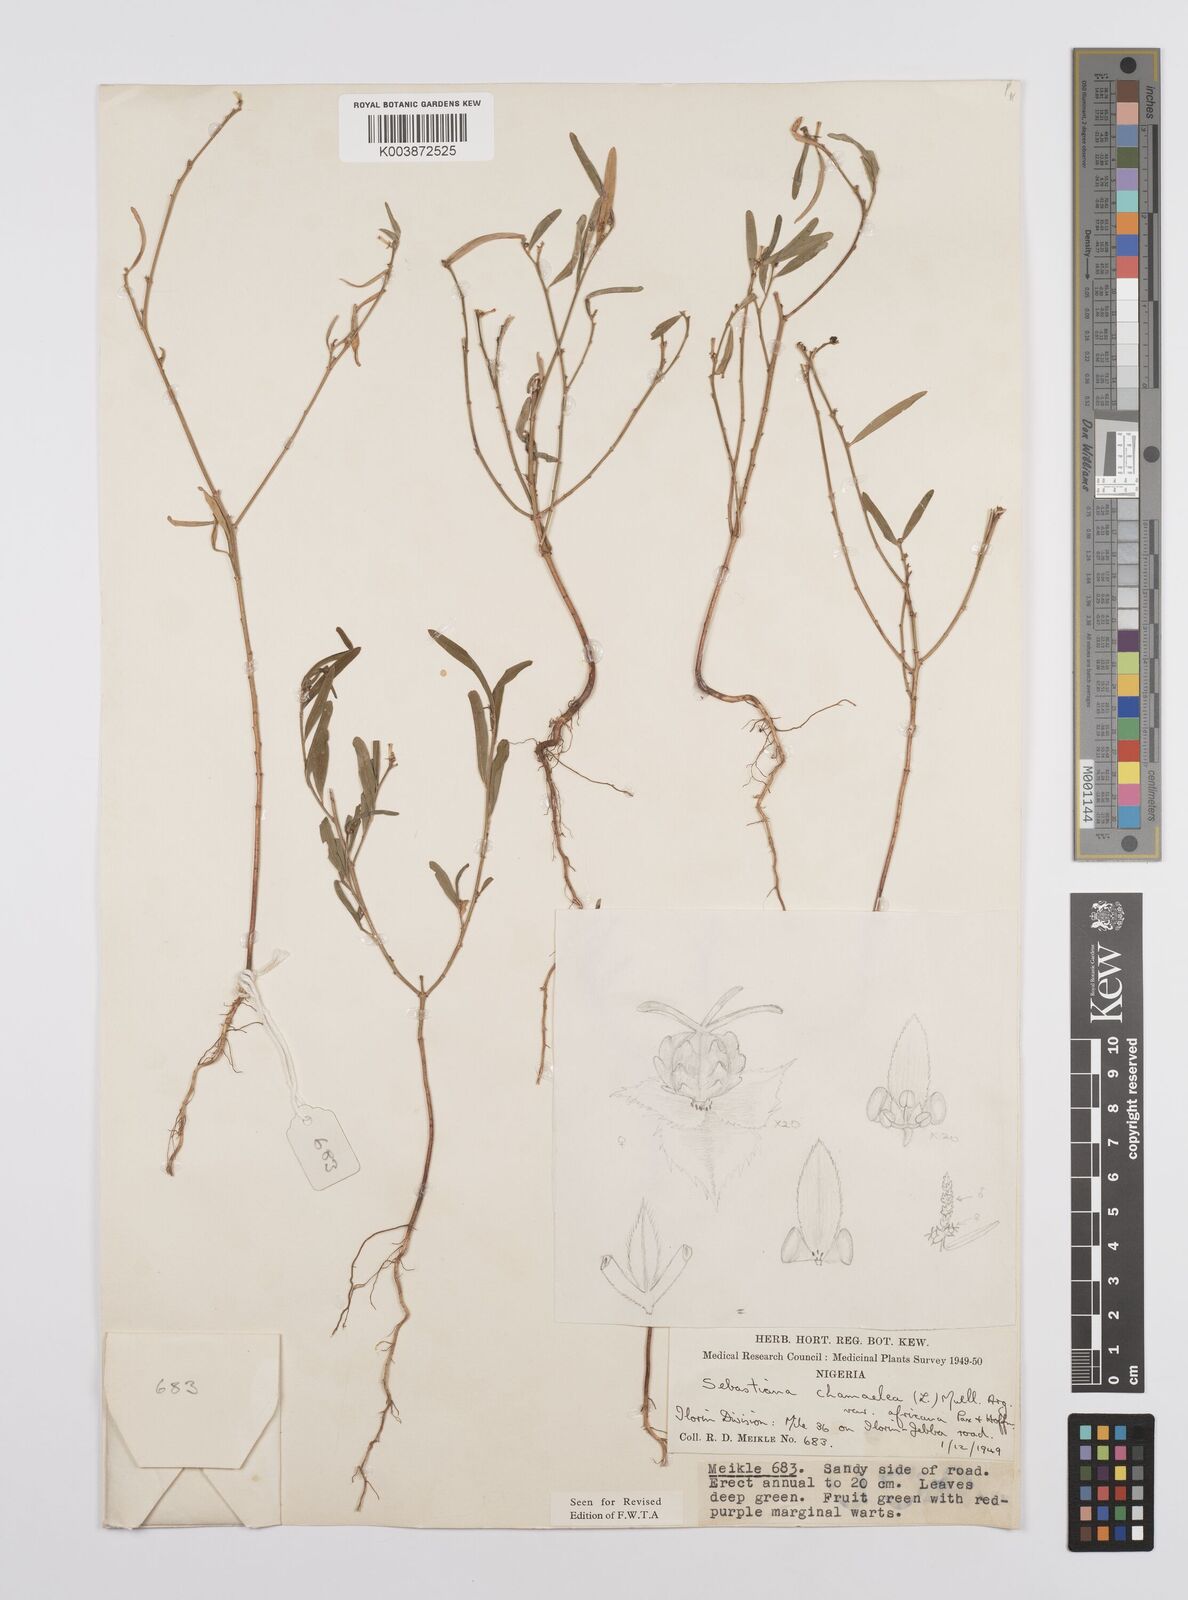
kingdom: Plantae
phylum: Tracheophyta
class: Magnoliopsida
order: Malpighiales
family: Euphorbiaceae
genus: Microstachys
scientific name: Microstachys chamaelea
